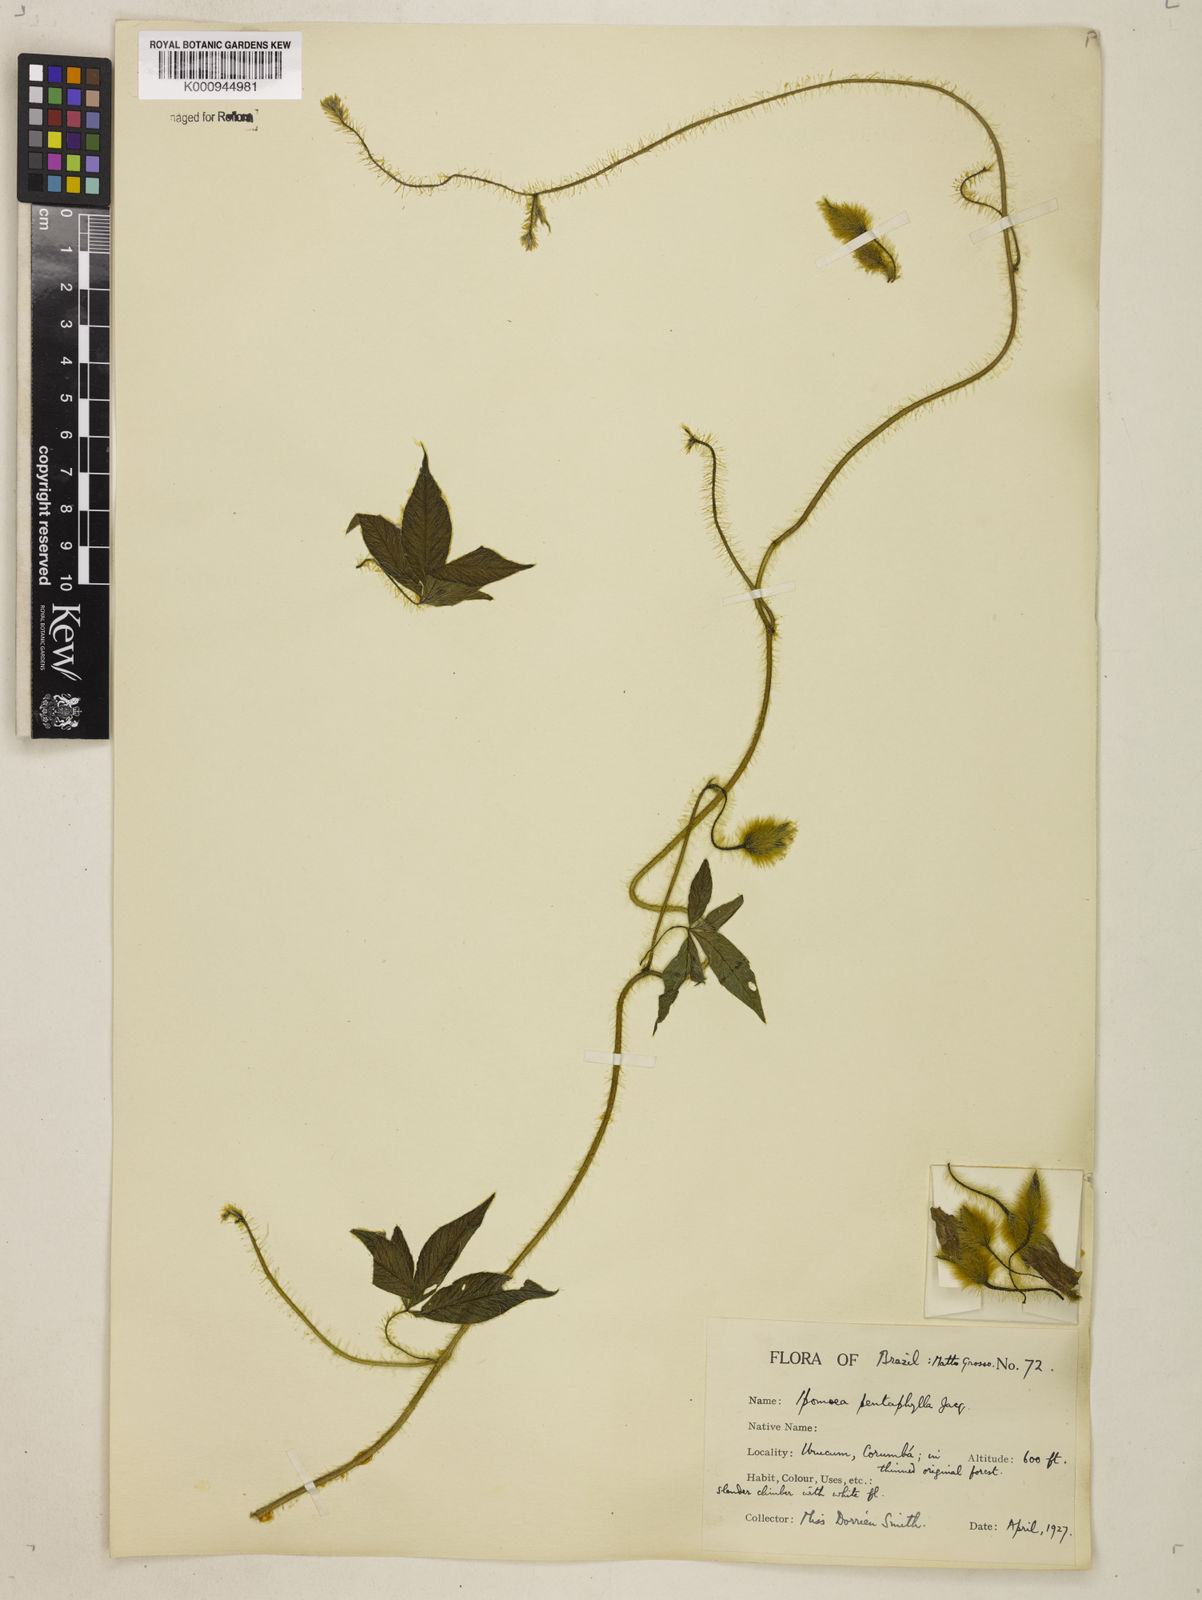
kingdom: Plantae
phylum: Tracheophyta
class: Magnoliopsida
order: Solanales
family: Convolvulaceae
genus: Distimake
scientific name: Distimake aegyptius
